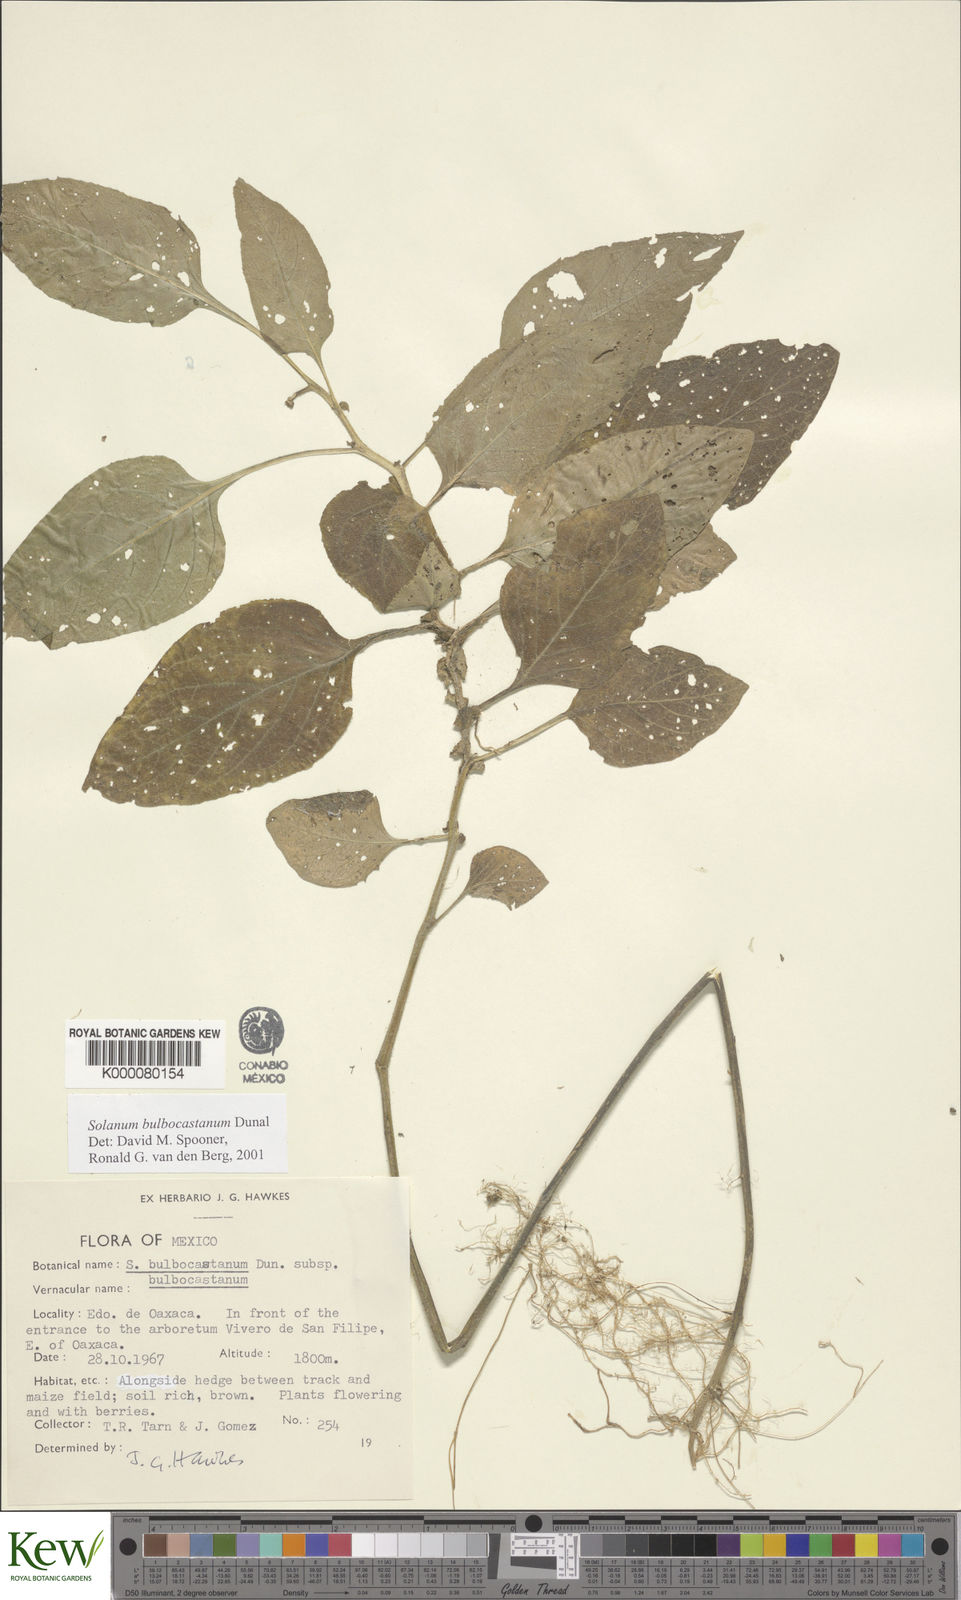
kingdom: Plantae
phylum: Tracheophyta
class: Magnoliopsida
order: Solanales
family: Solanaceae
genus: Solanum
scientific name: Solanum bulbocastanum
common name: Ornamental nightshade
